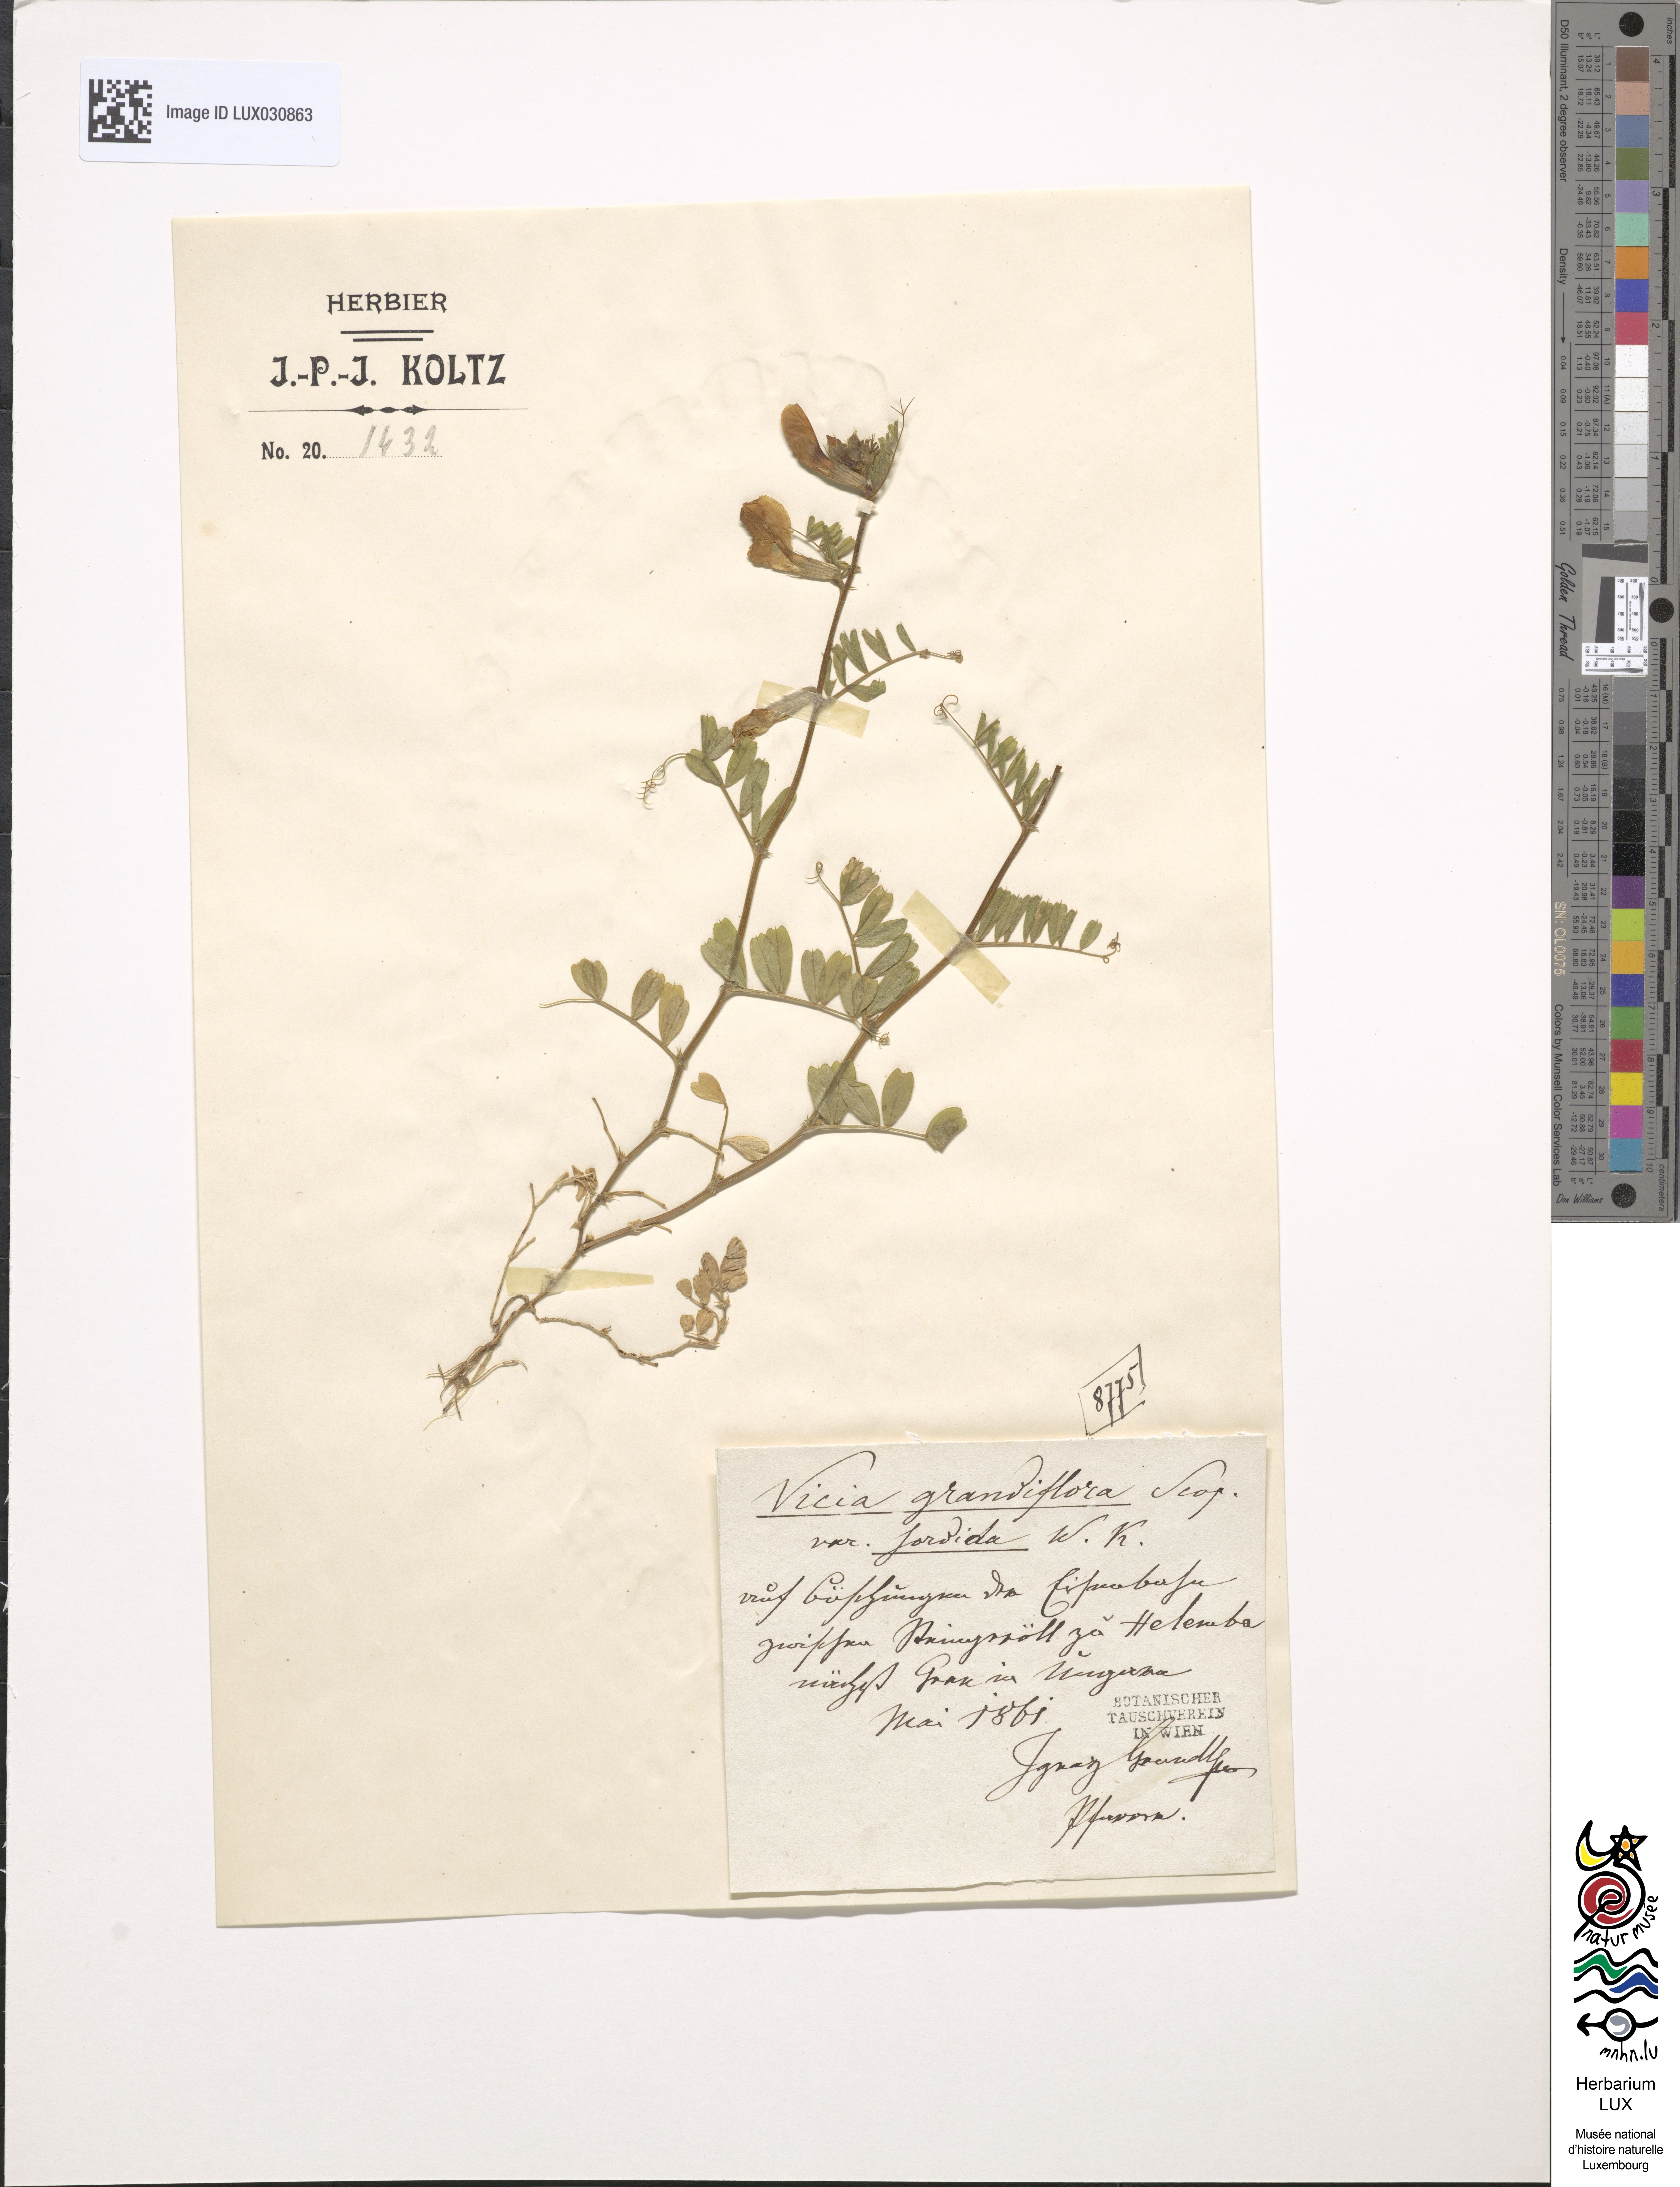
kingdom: Plantae
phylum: Tracheophyta
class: Magnoliopsida
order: Fabales
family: Fabaceae
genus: Vicia
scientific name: Vicia grandiflora
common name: Large yellow vetch
